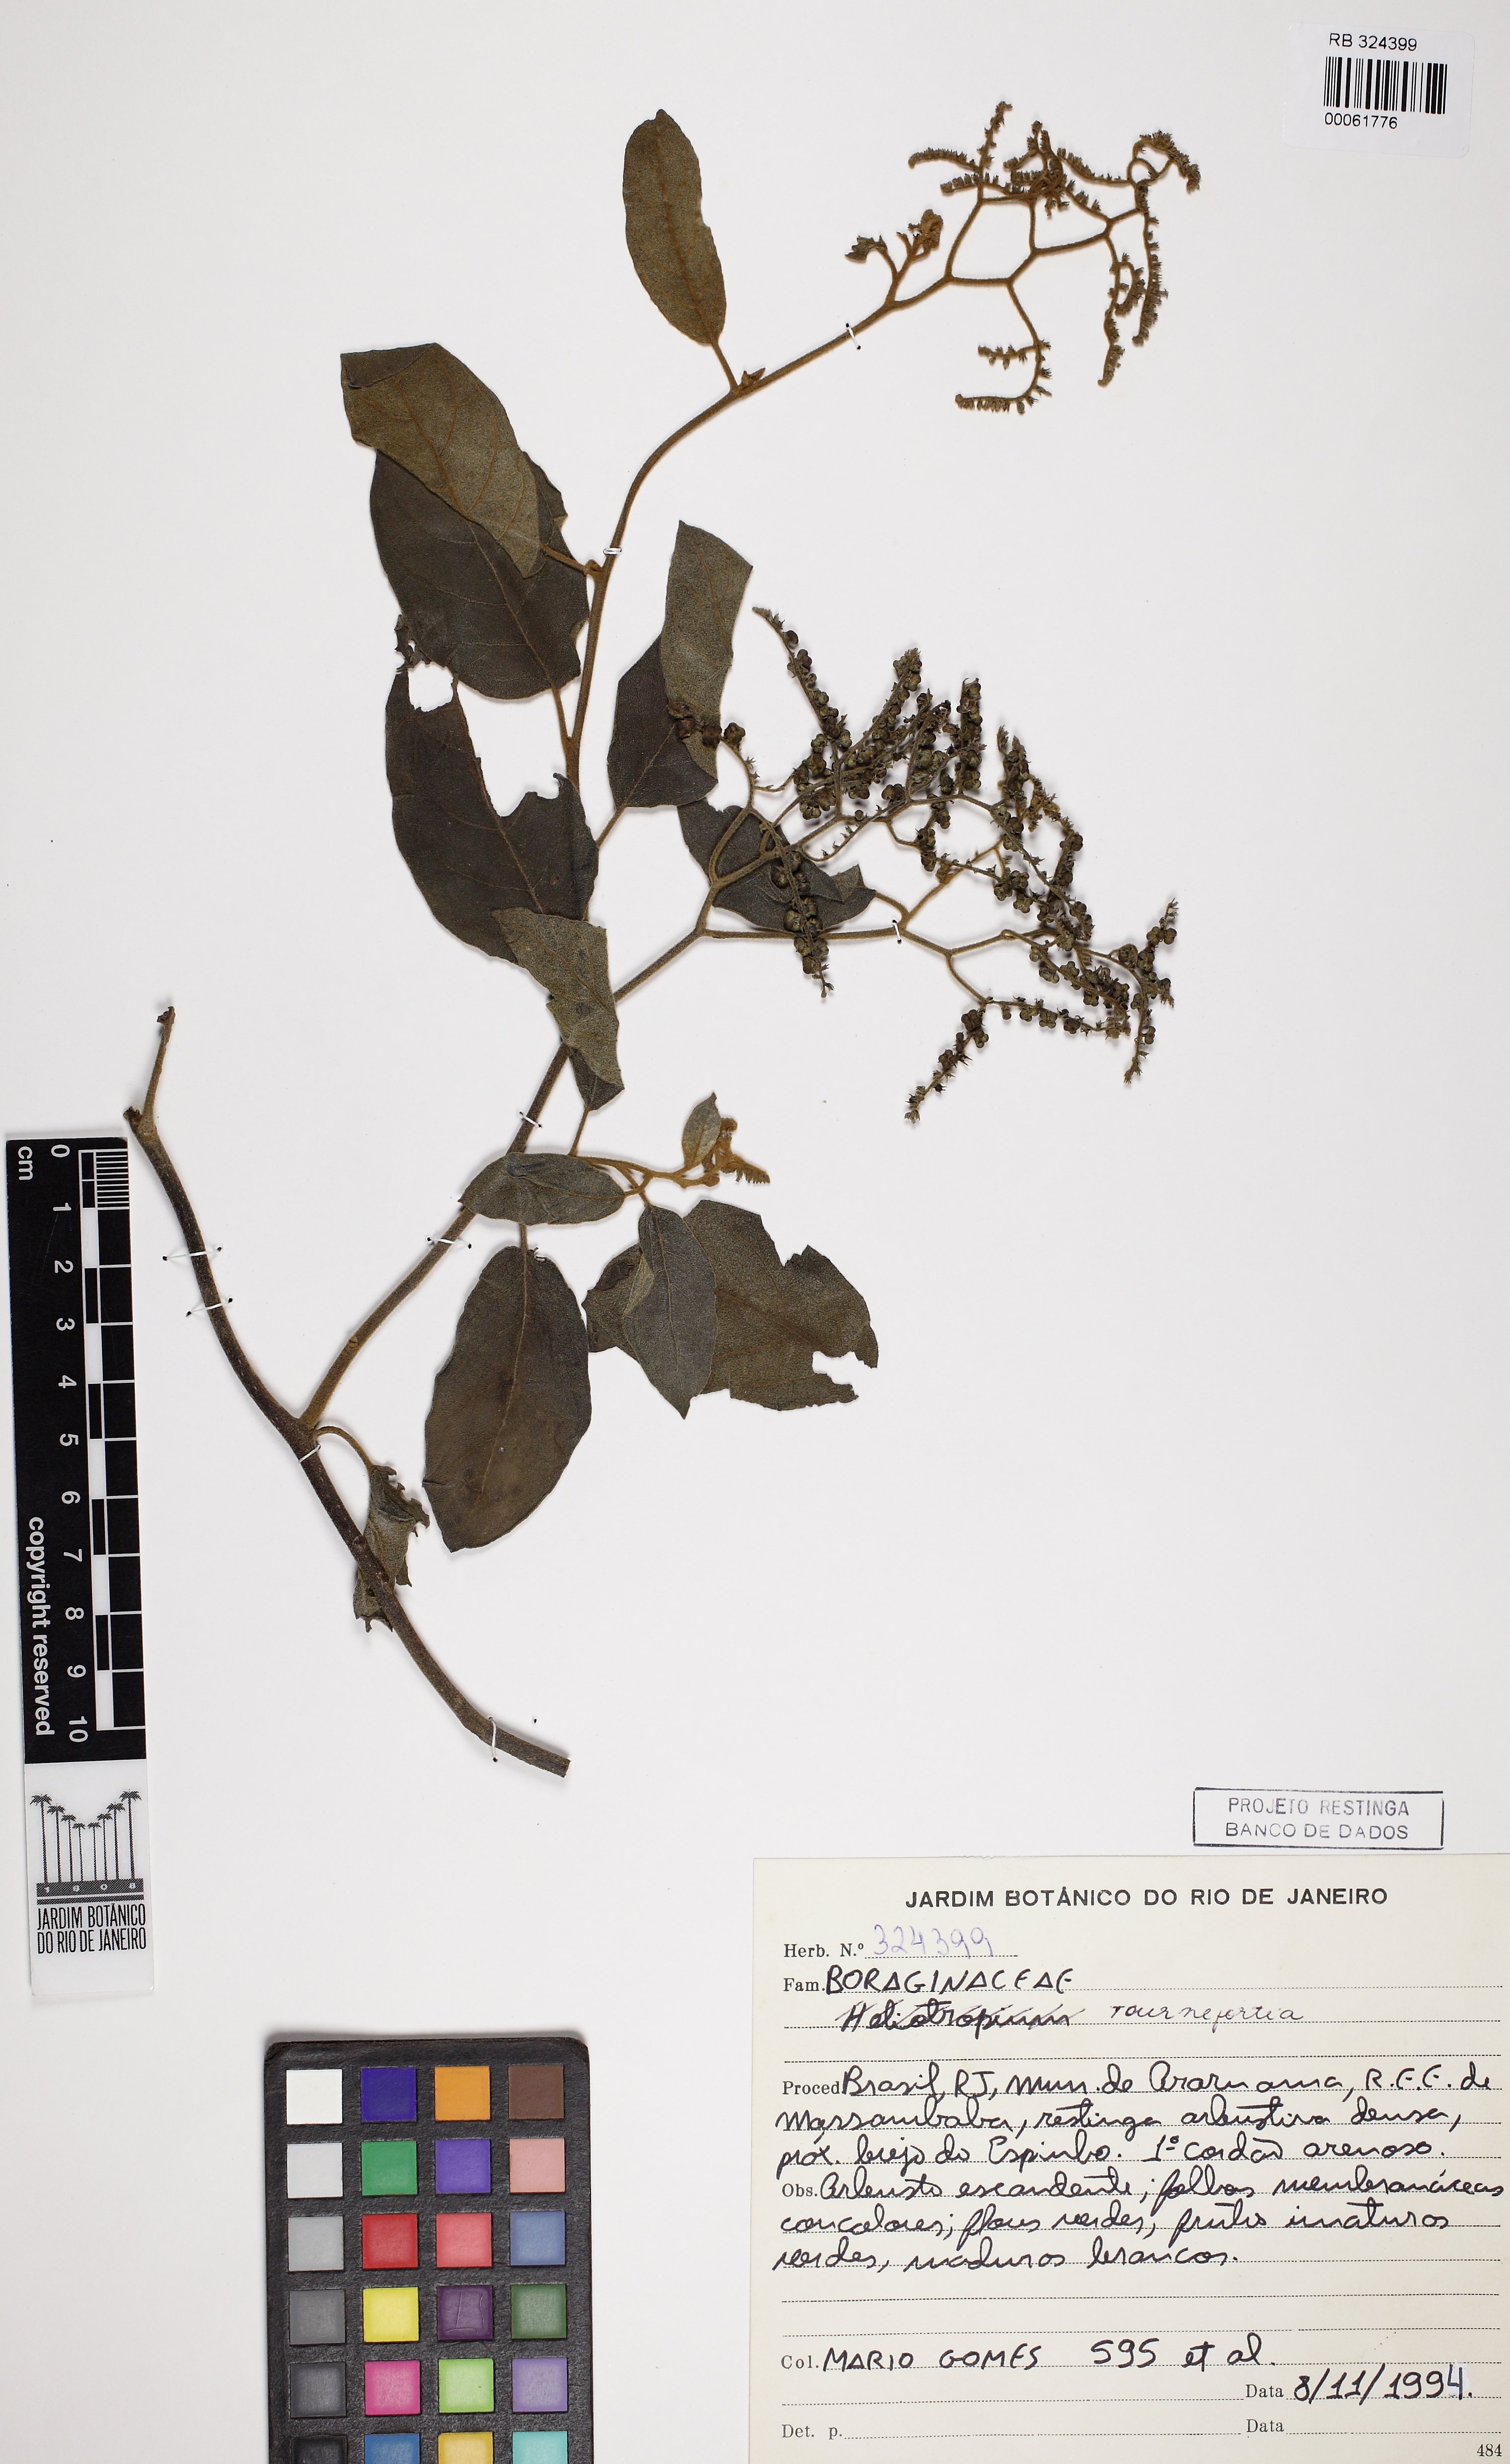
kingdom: Plantae
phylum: Tracheophyta
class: Magnoliopsida
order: Boraginales
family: Heliotropiaceae
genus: Myriopus
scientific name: Myriopus membranaceus
